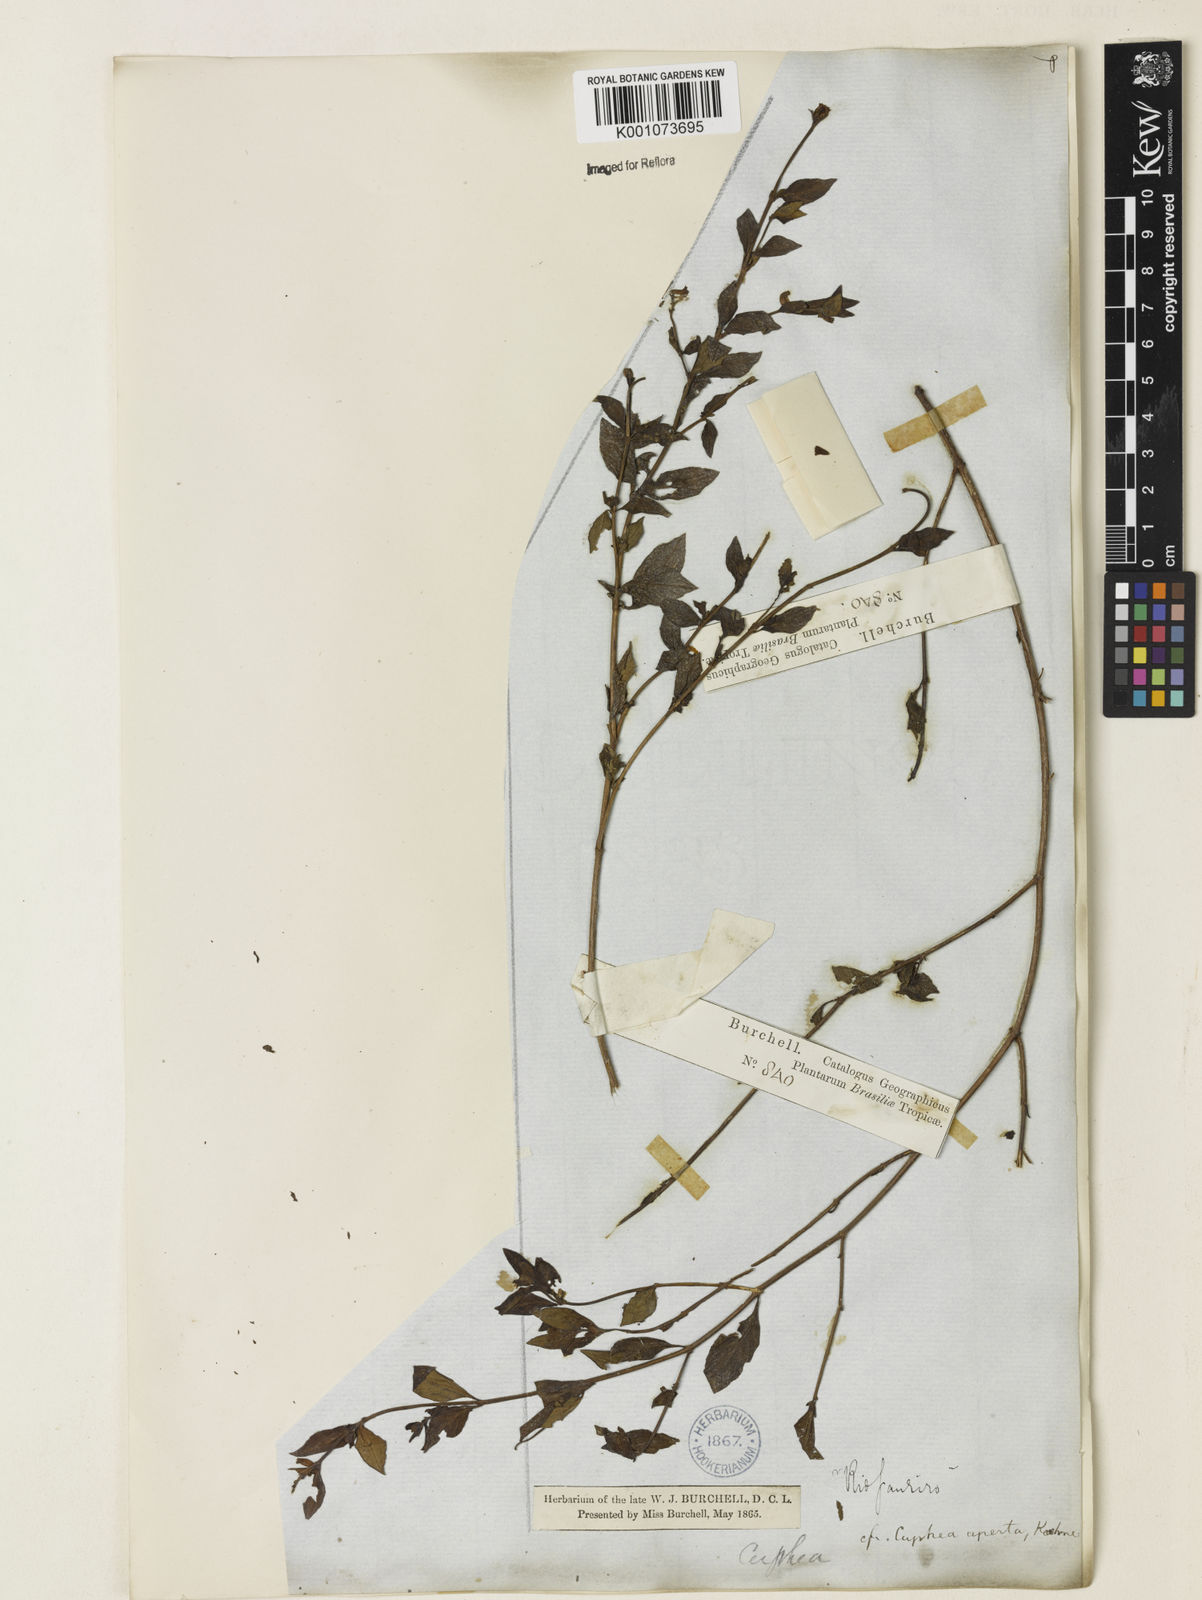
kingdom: Plantae
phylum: Tracheophyta
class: Magnoliopsida
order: Myrtales
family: Lythraceae
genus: Cuphea
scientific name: Cuphea aperta
